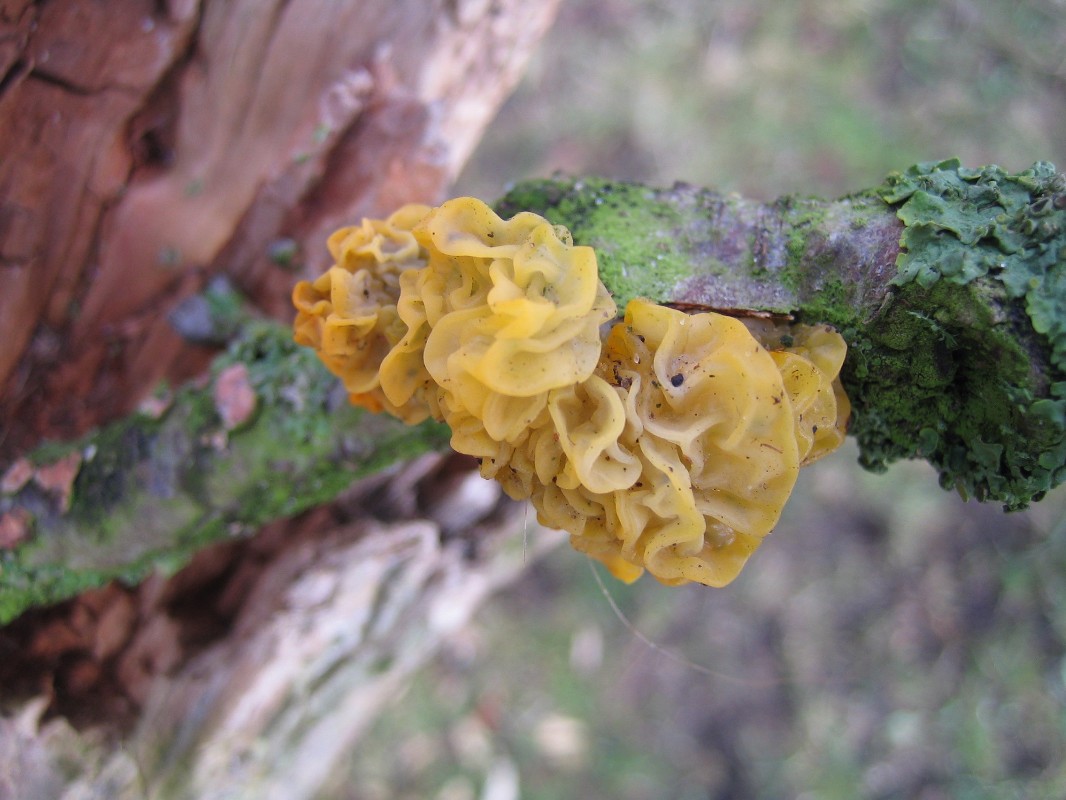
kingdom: Fungi
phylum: Basidiomycota
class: Tremellomycetes
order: Tremellales
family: Tremellaceae
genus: Tremella
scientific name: Tremella mesenterica
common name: gul bævresvamp
